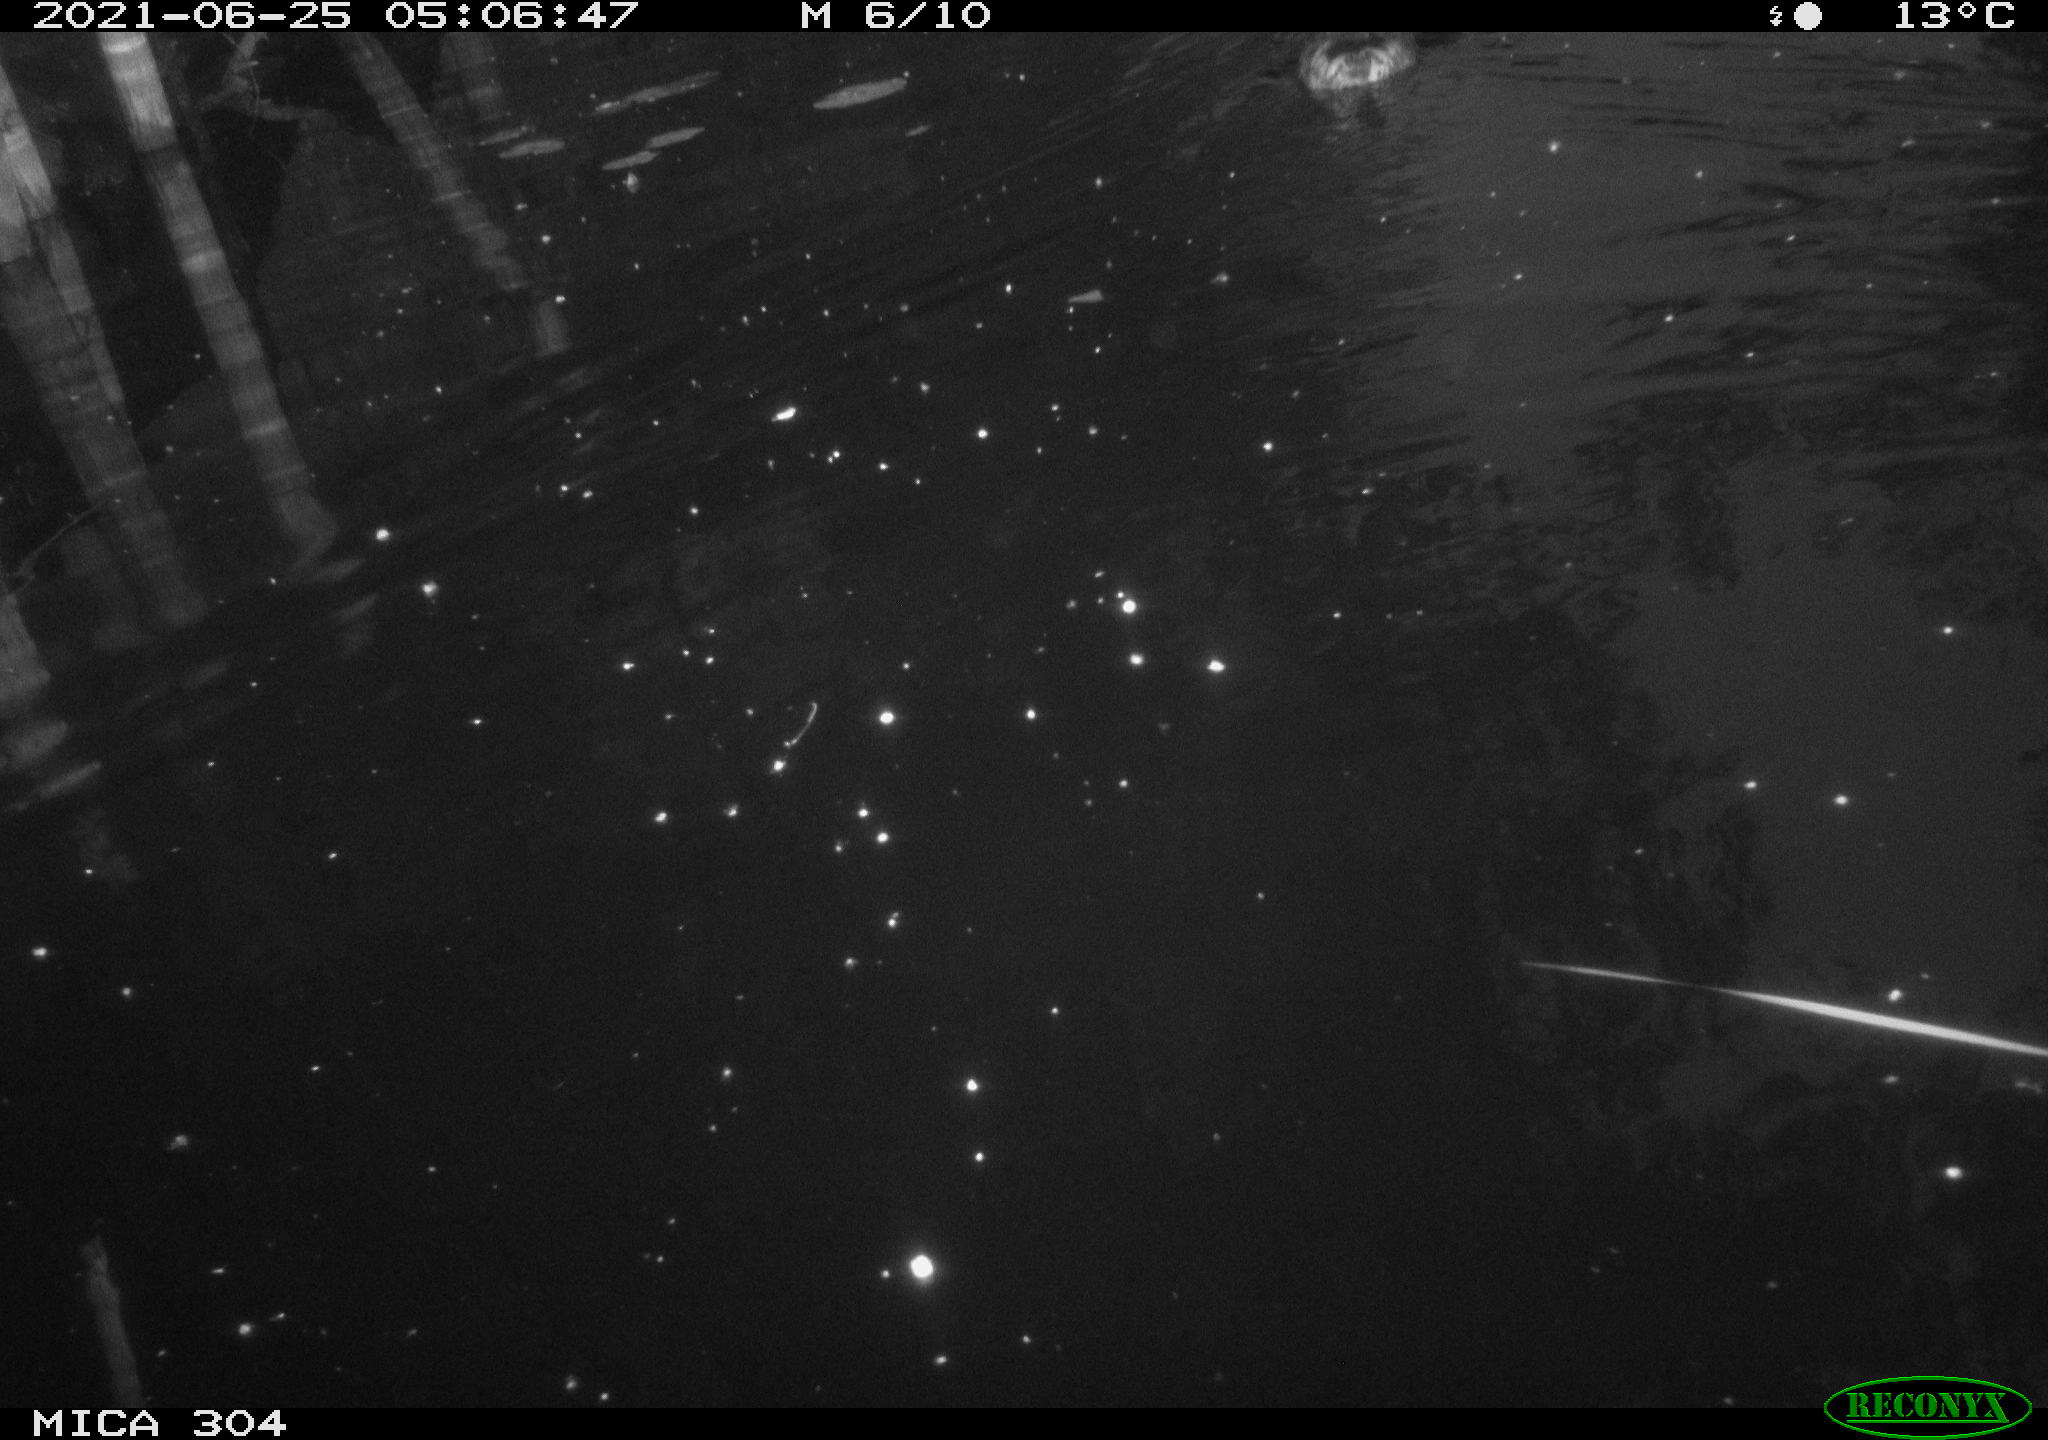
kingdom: Animalia
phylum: Chordata
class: Aves
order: Anseriformes
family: Anatidae
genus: Anas
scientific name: Anas platyrhynchos
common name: Mallard
